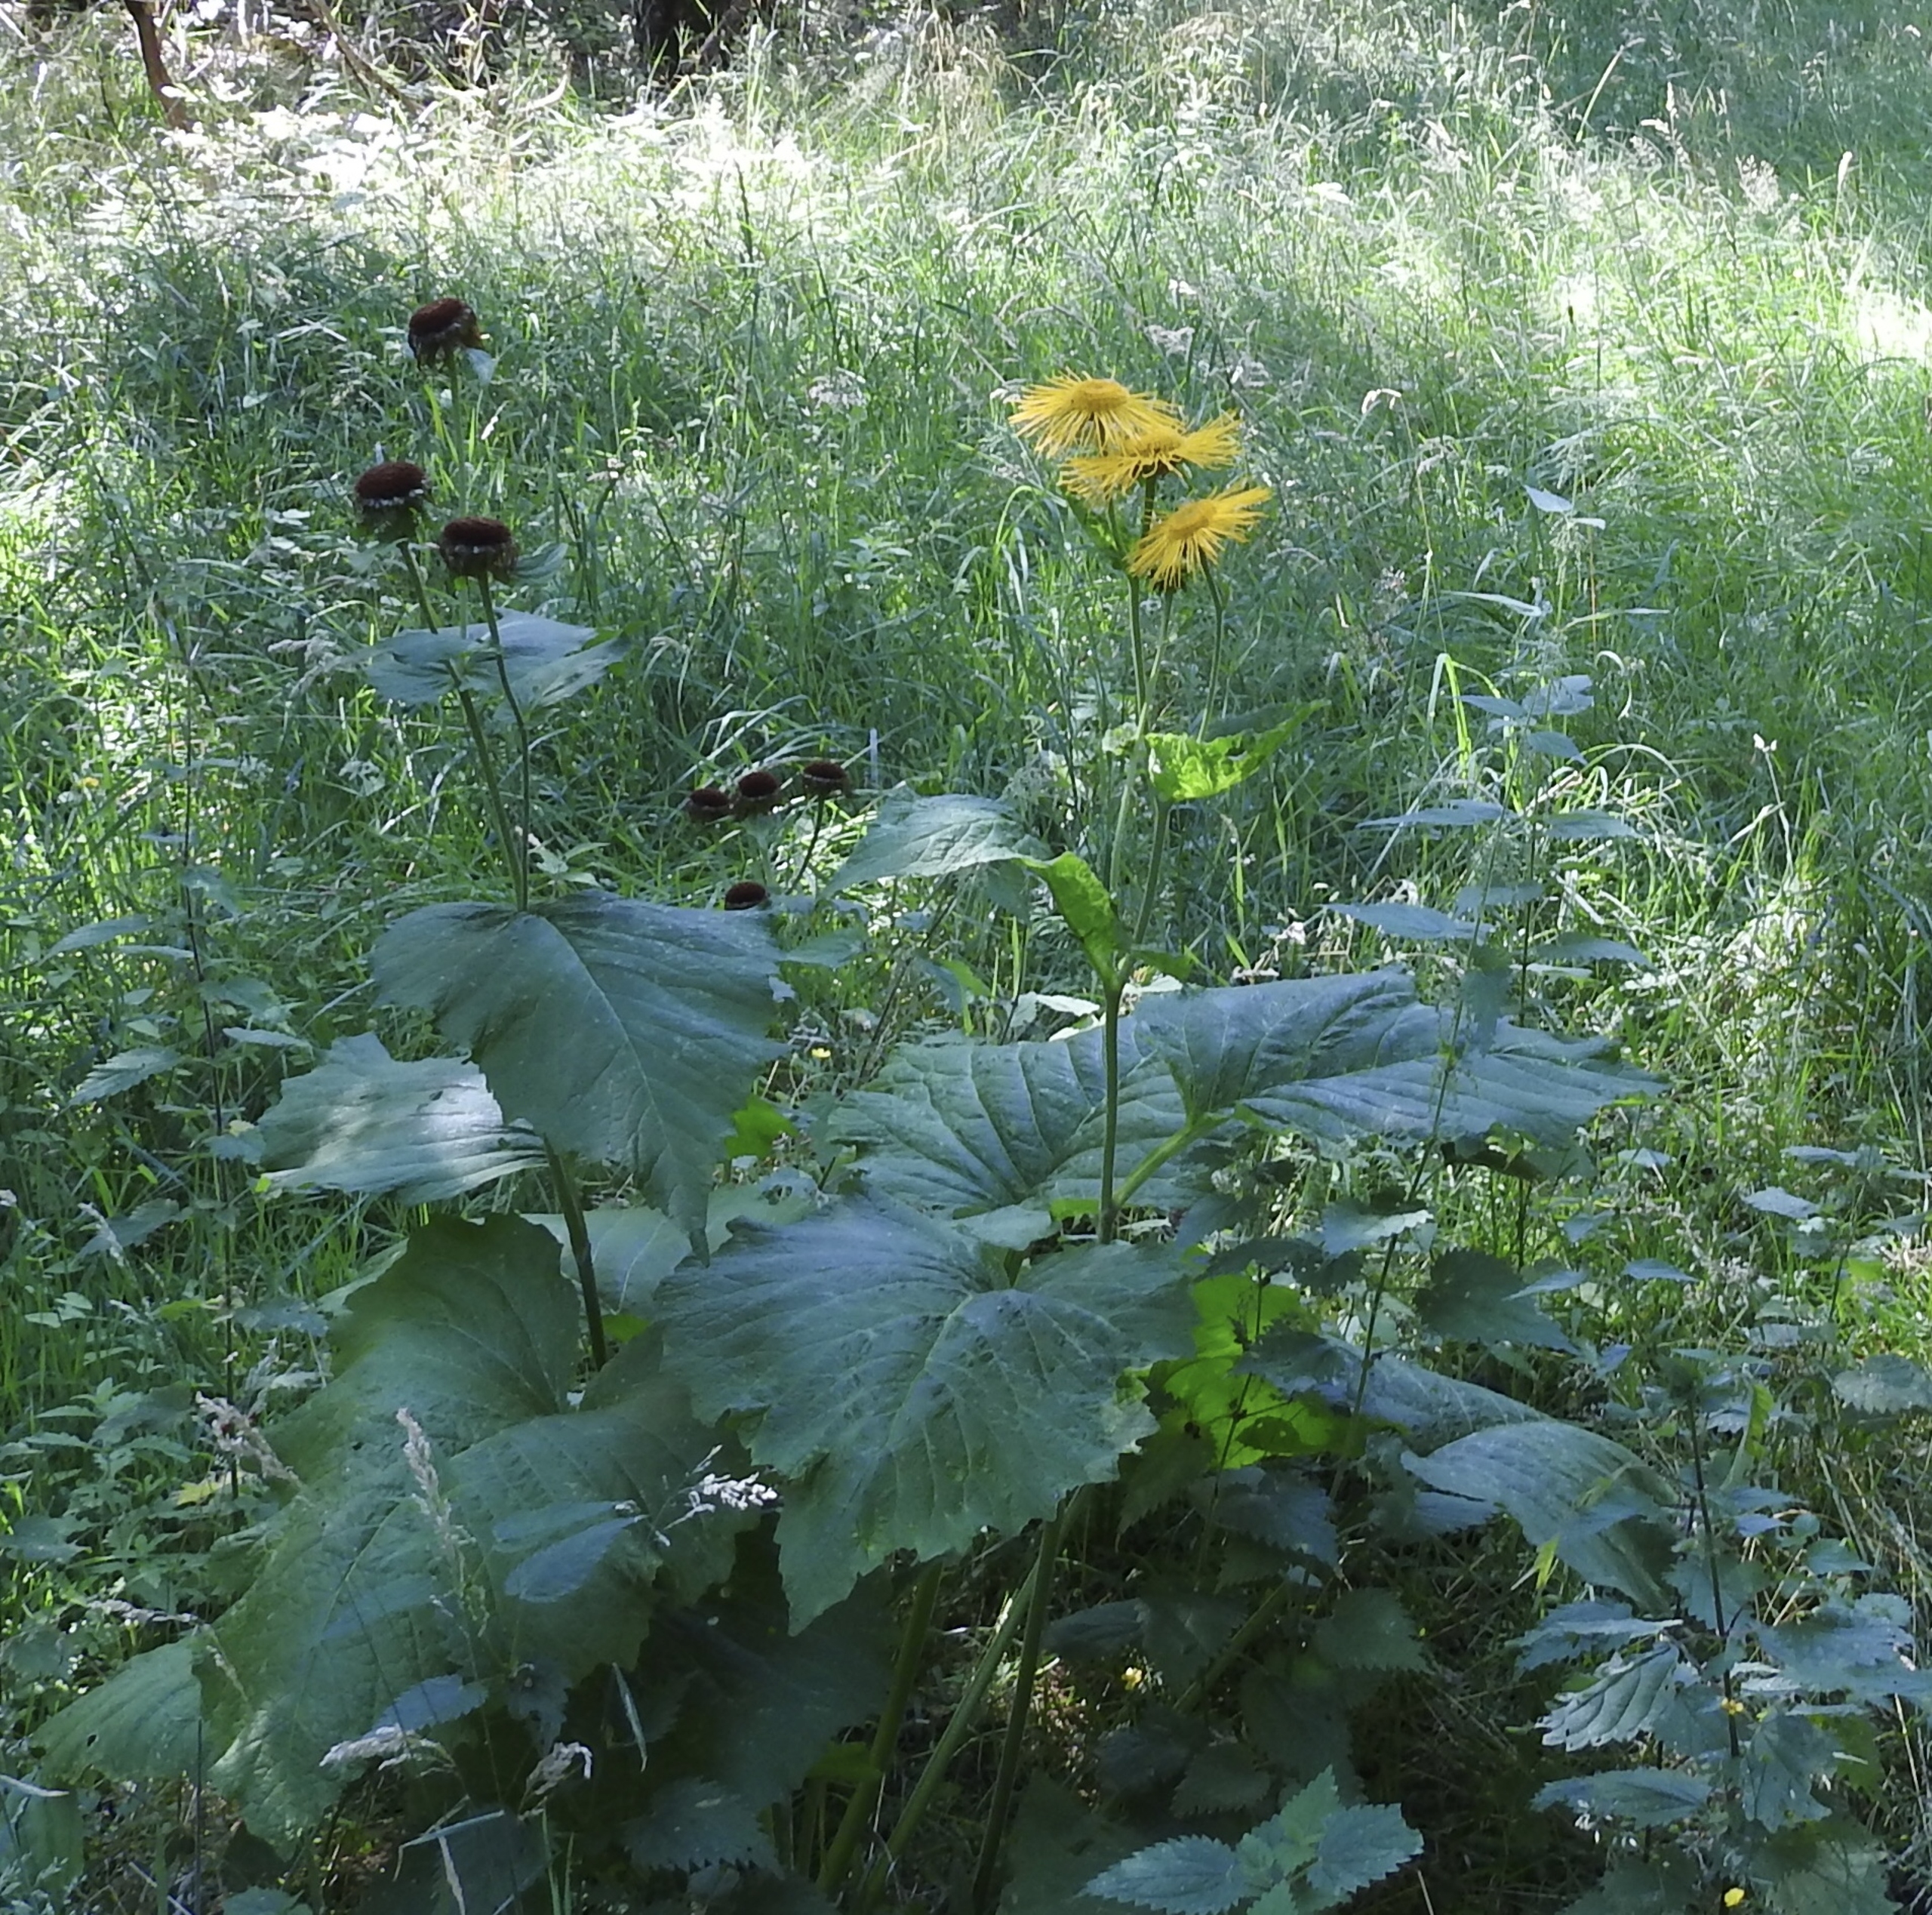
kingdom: Plantae
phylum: Tracheophyta
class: Magnoliopsida
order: Asterales
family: Asteraceae
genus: Telekia
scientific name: Telekia speciosa
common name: Tusindstråle
